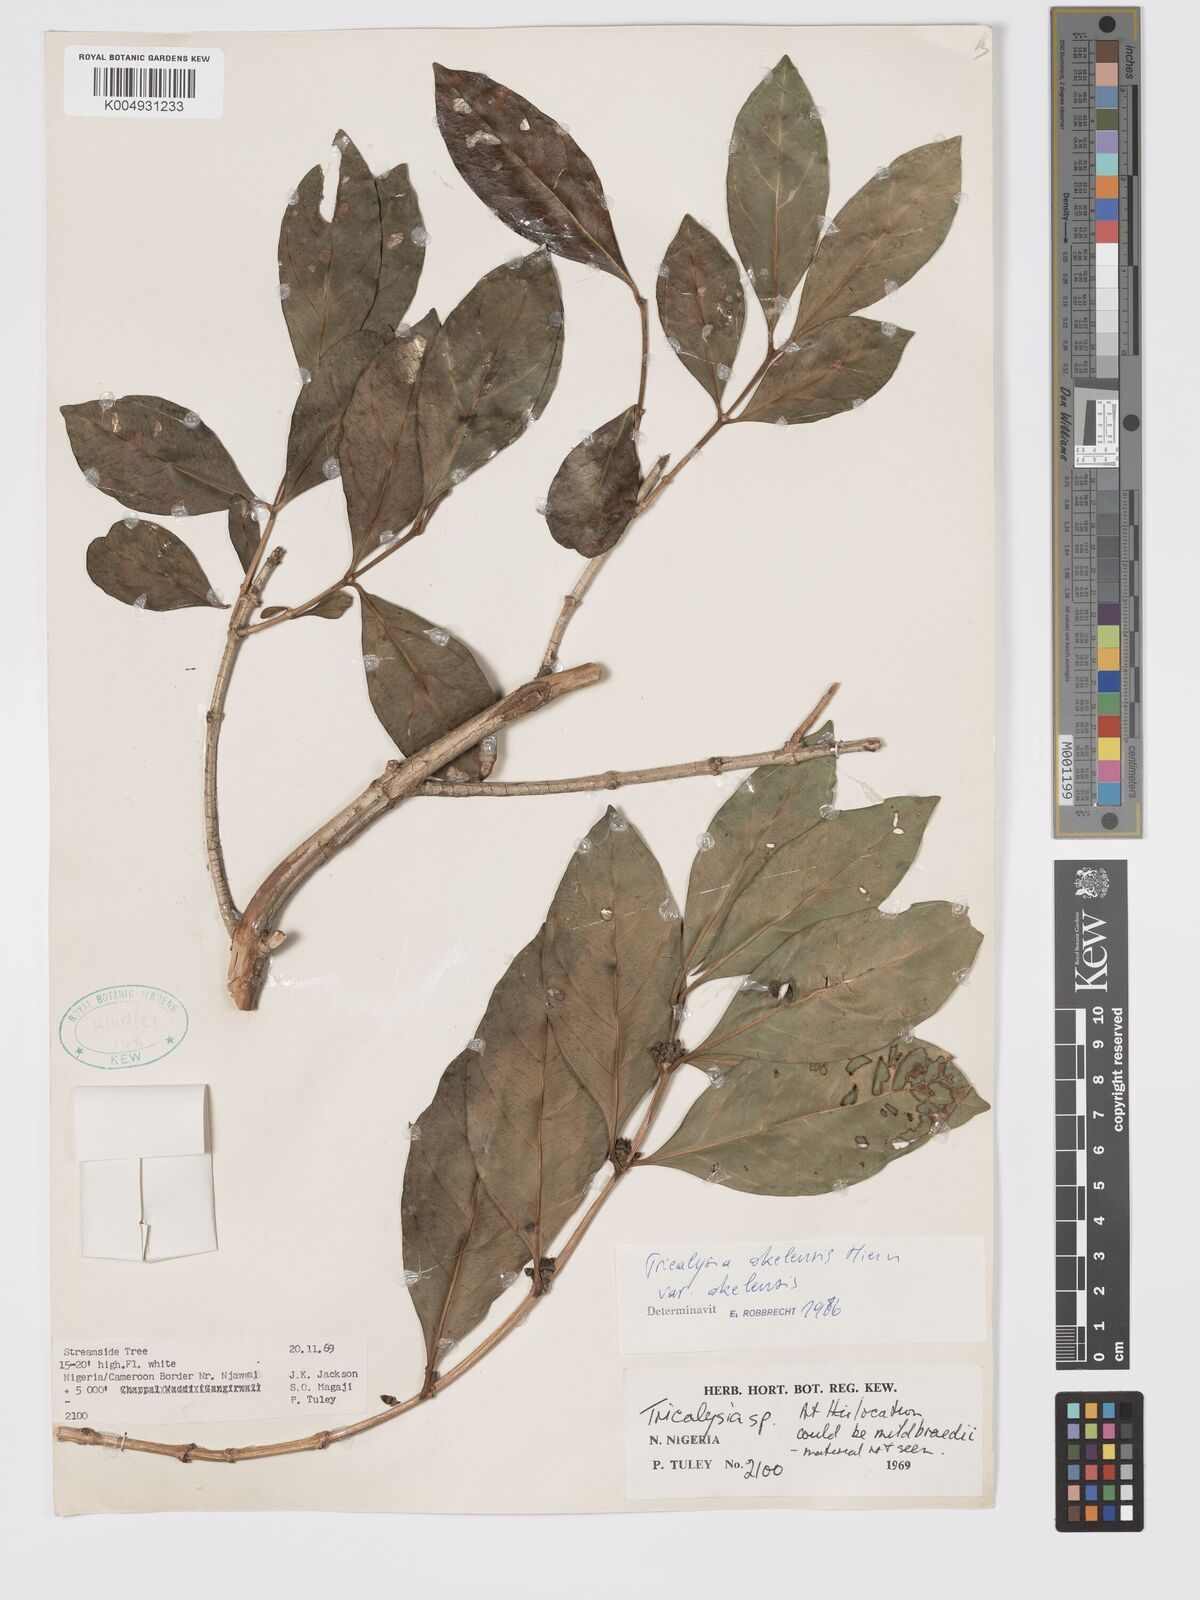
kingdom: Plantae
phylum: Tracheophyta
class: Magnoliopsida
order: Gentianales
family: Rubiaceae
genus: Tricalysia
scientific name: Tricalysia okelensis
